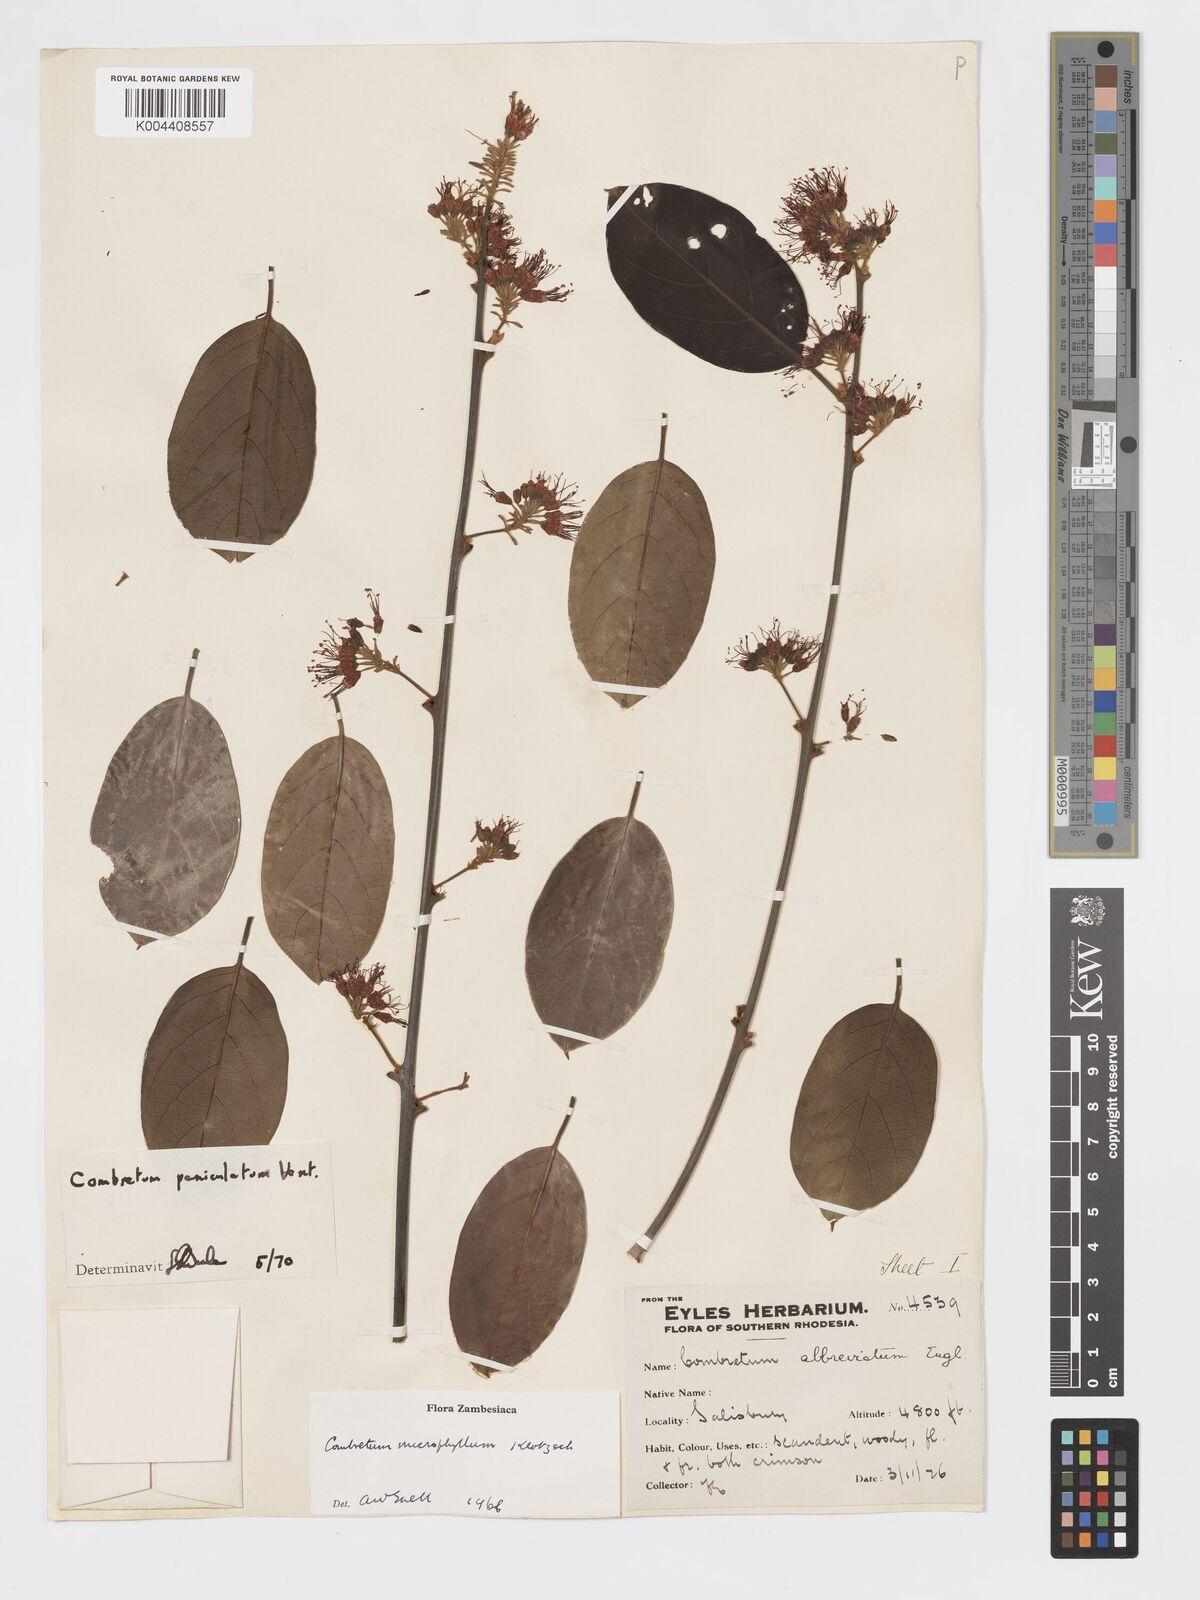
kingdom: Plantae
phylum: Tracheophyta
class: Magnoliopsida
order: Myrtales
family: Combretaceae
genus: Combretum
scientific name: Combretum paniculatum
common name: Fire vine
